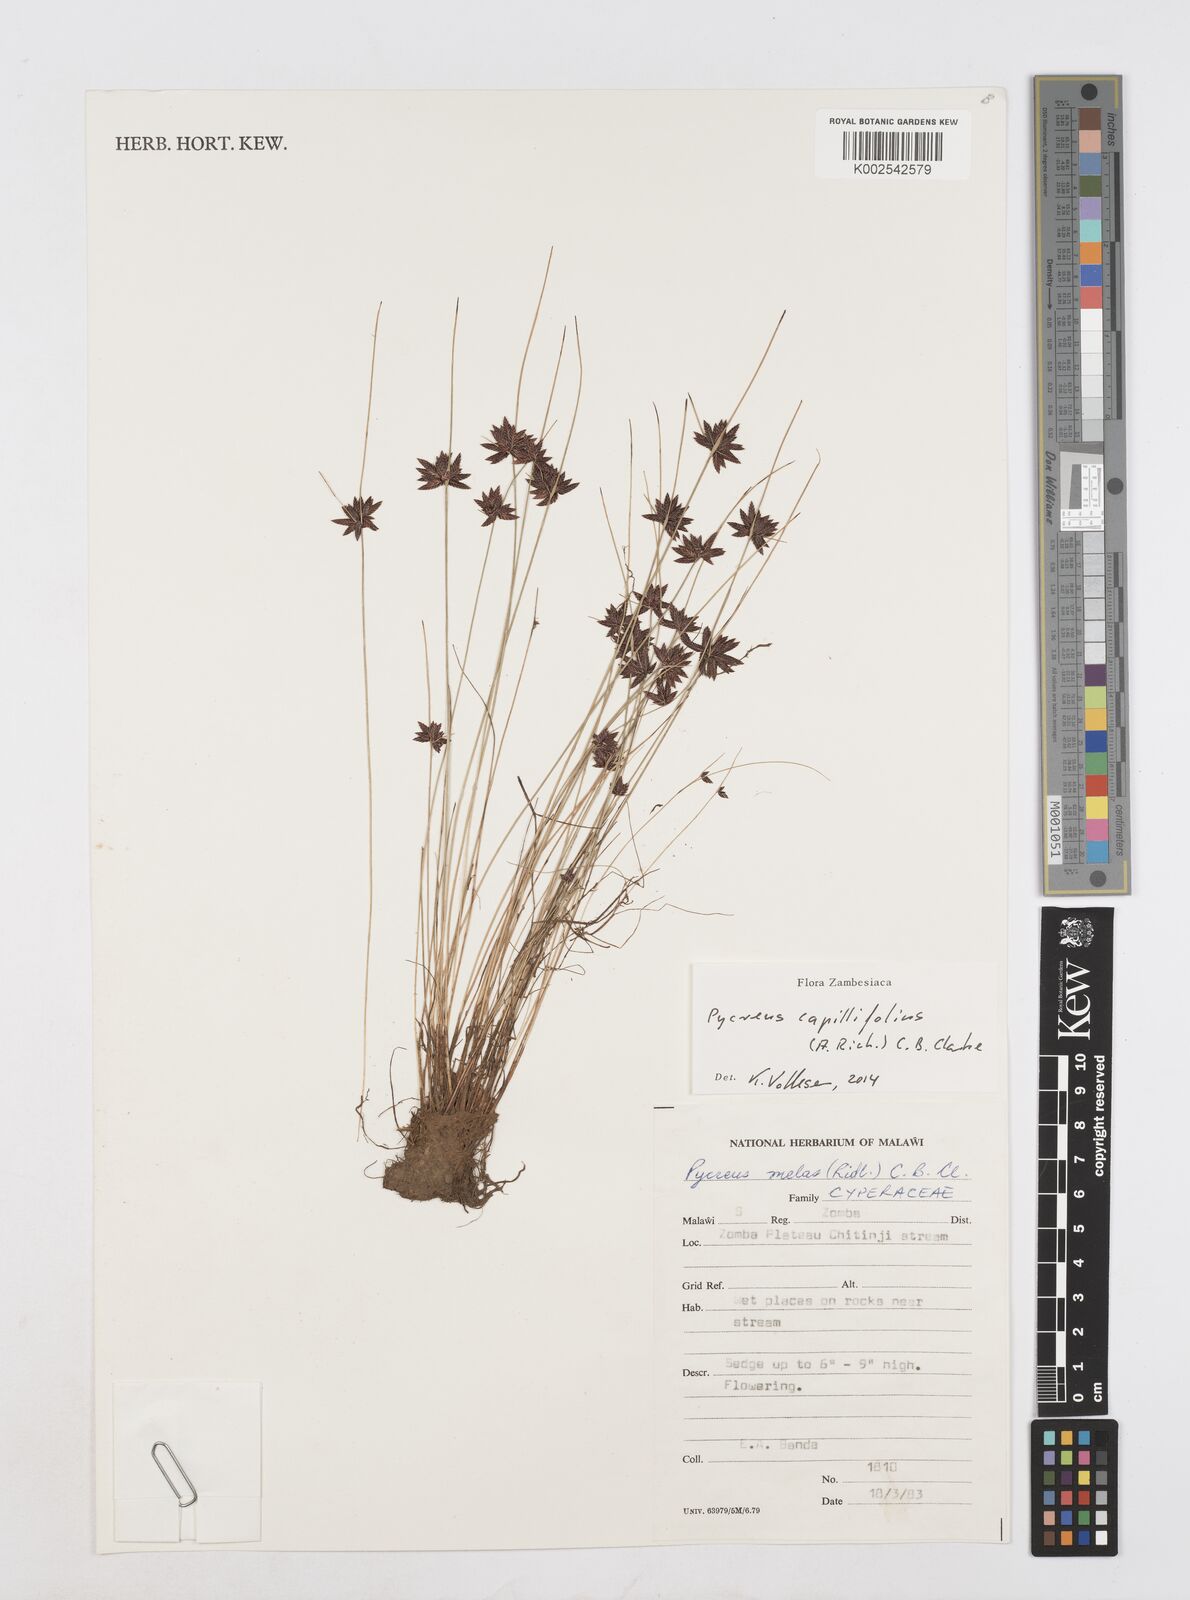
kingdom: Plantae
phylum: Tracheophyta
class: Liliopsida
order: Poales
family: Cyperaceae
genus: Cyperus
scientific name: Cyperus capillifolius
